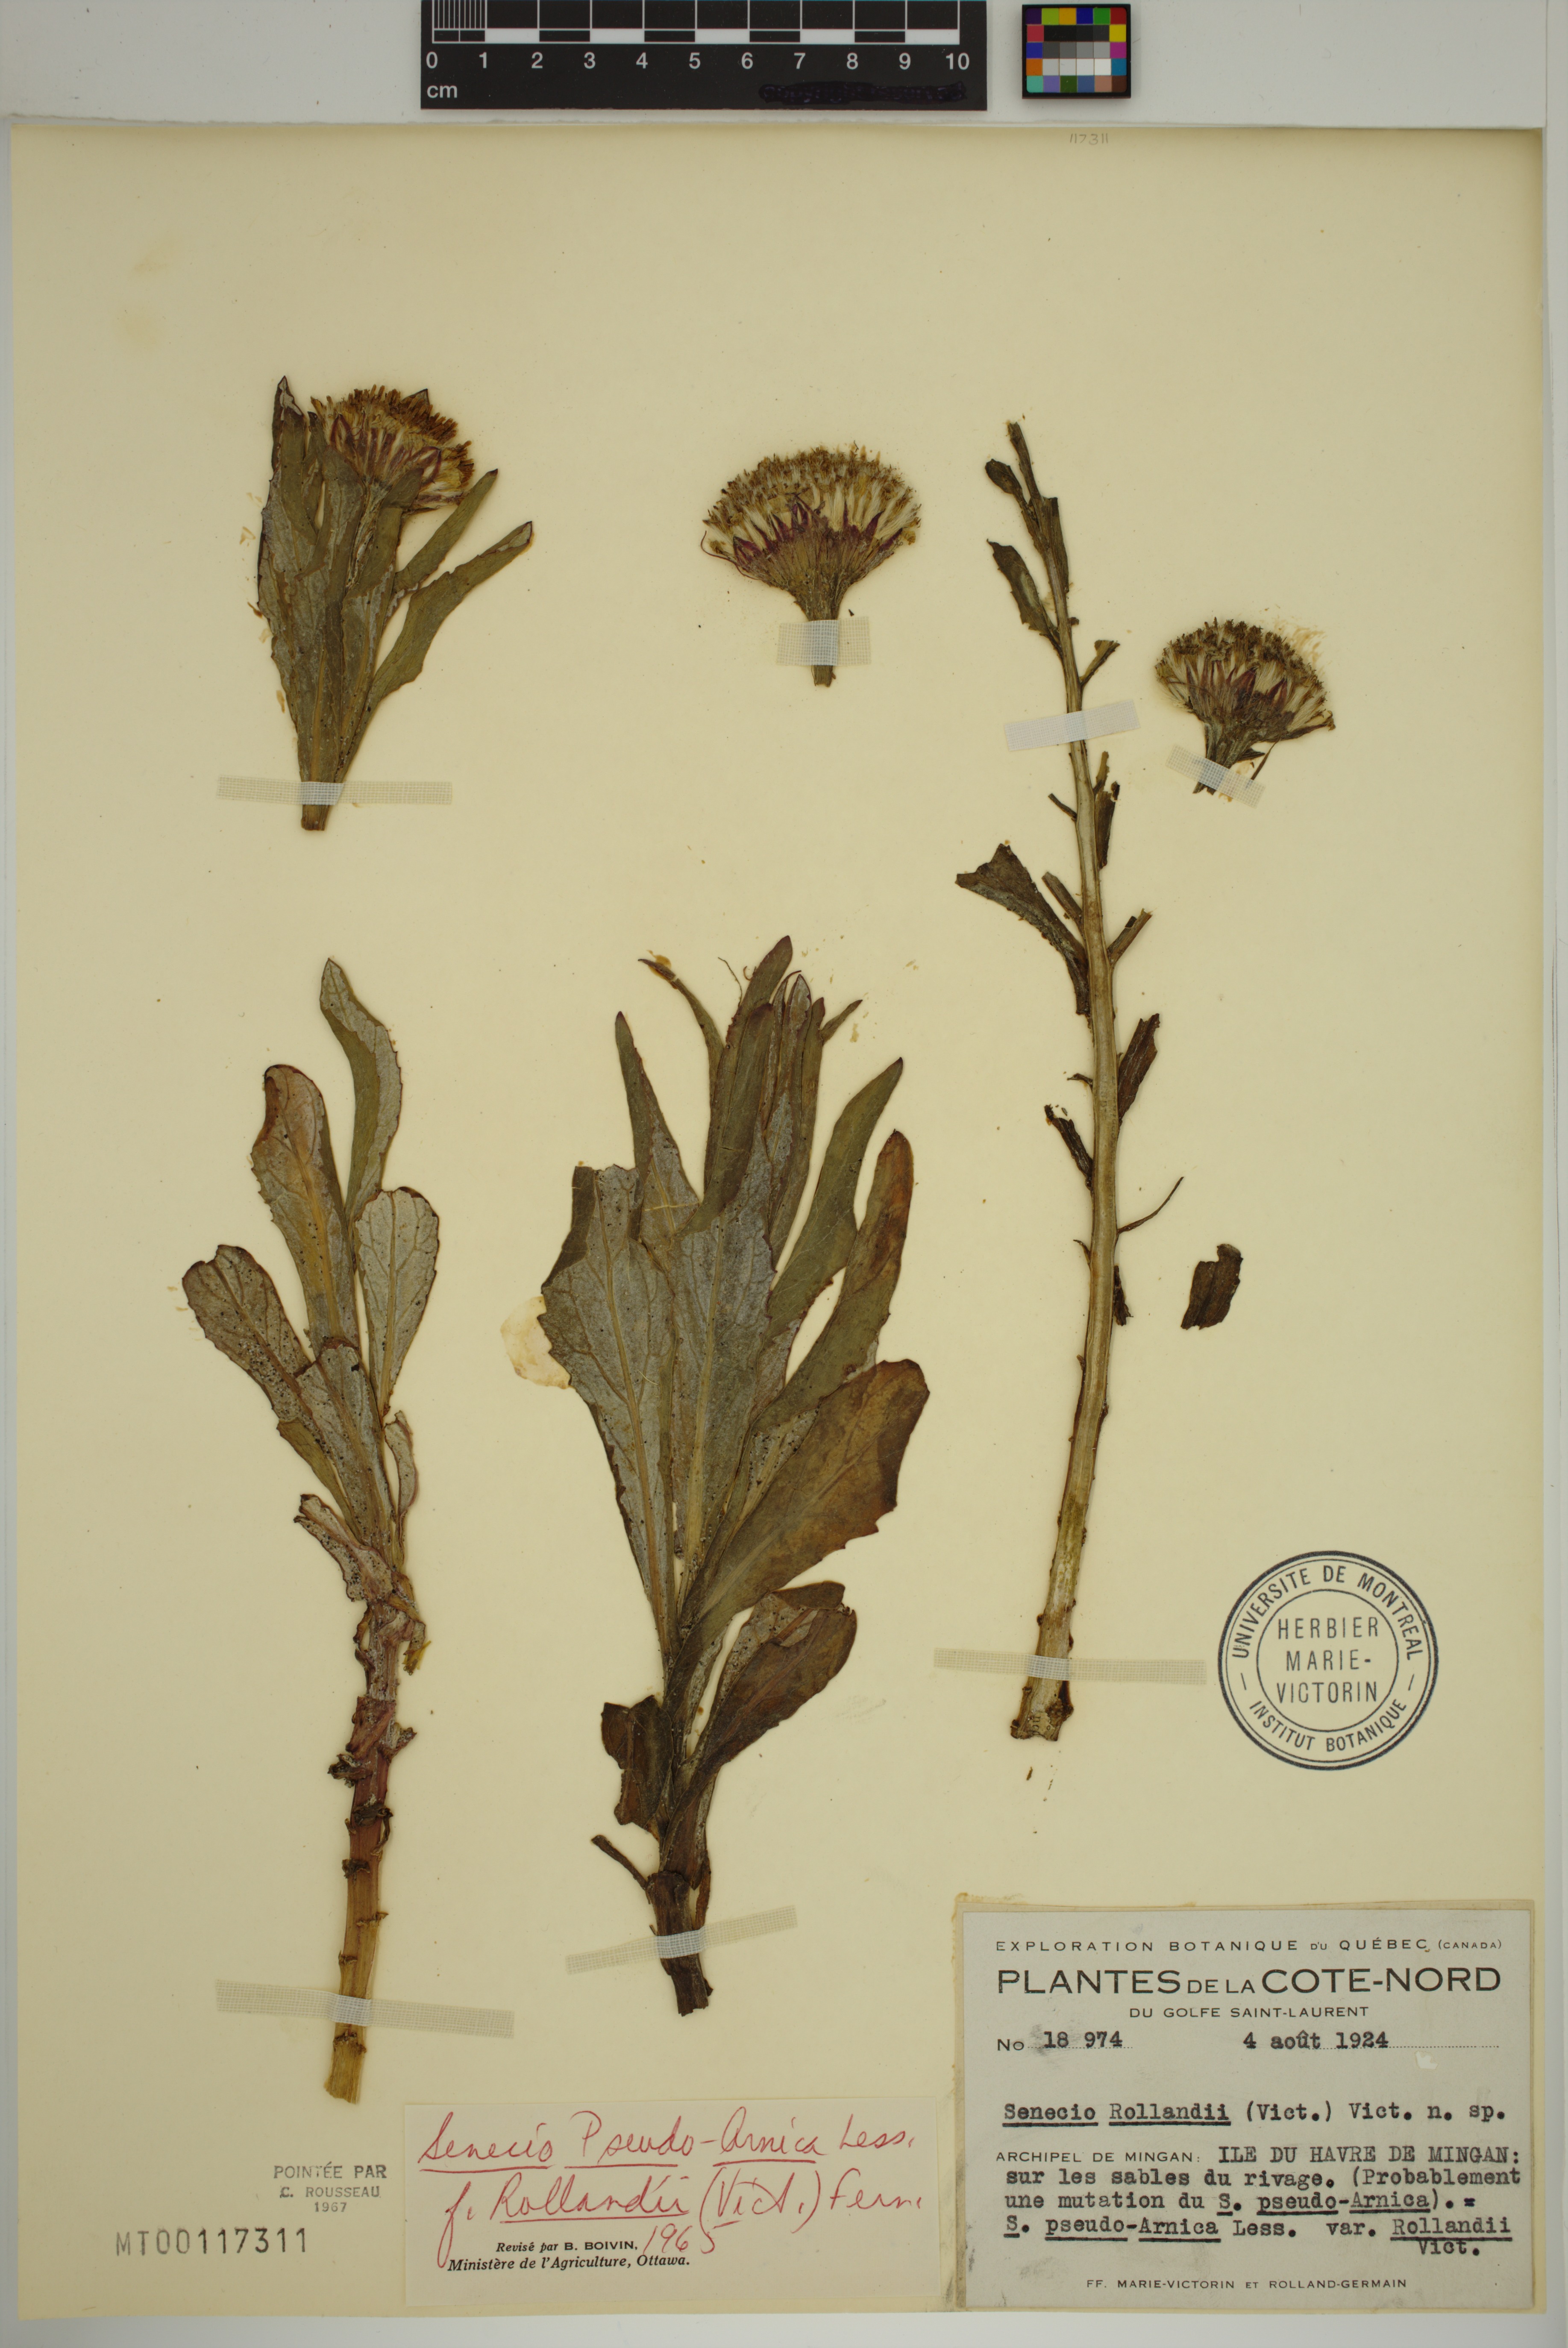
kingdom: Plantae
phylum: Tracheophyta
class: Magnoliopsida
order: Asterales
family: Asteraceae
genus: Jacobaea
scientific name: Jacobaea pseudoarnica
